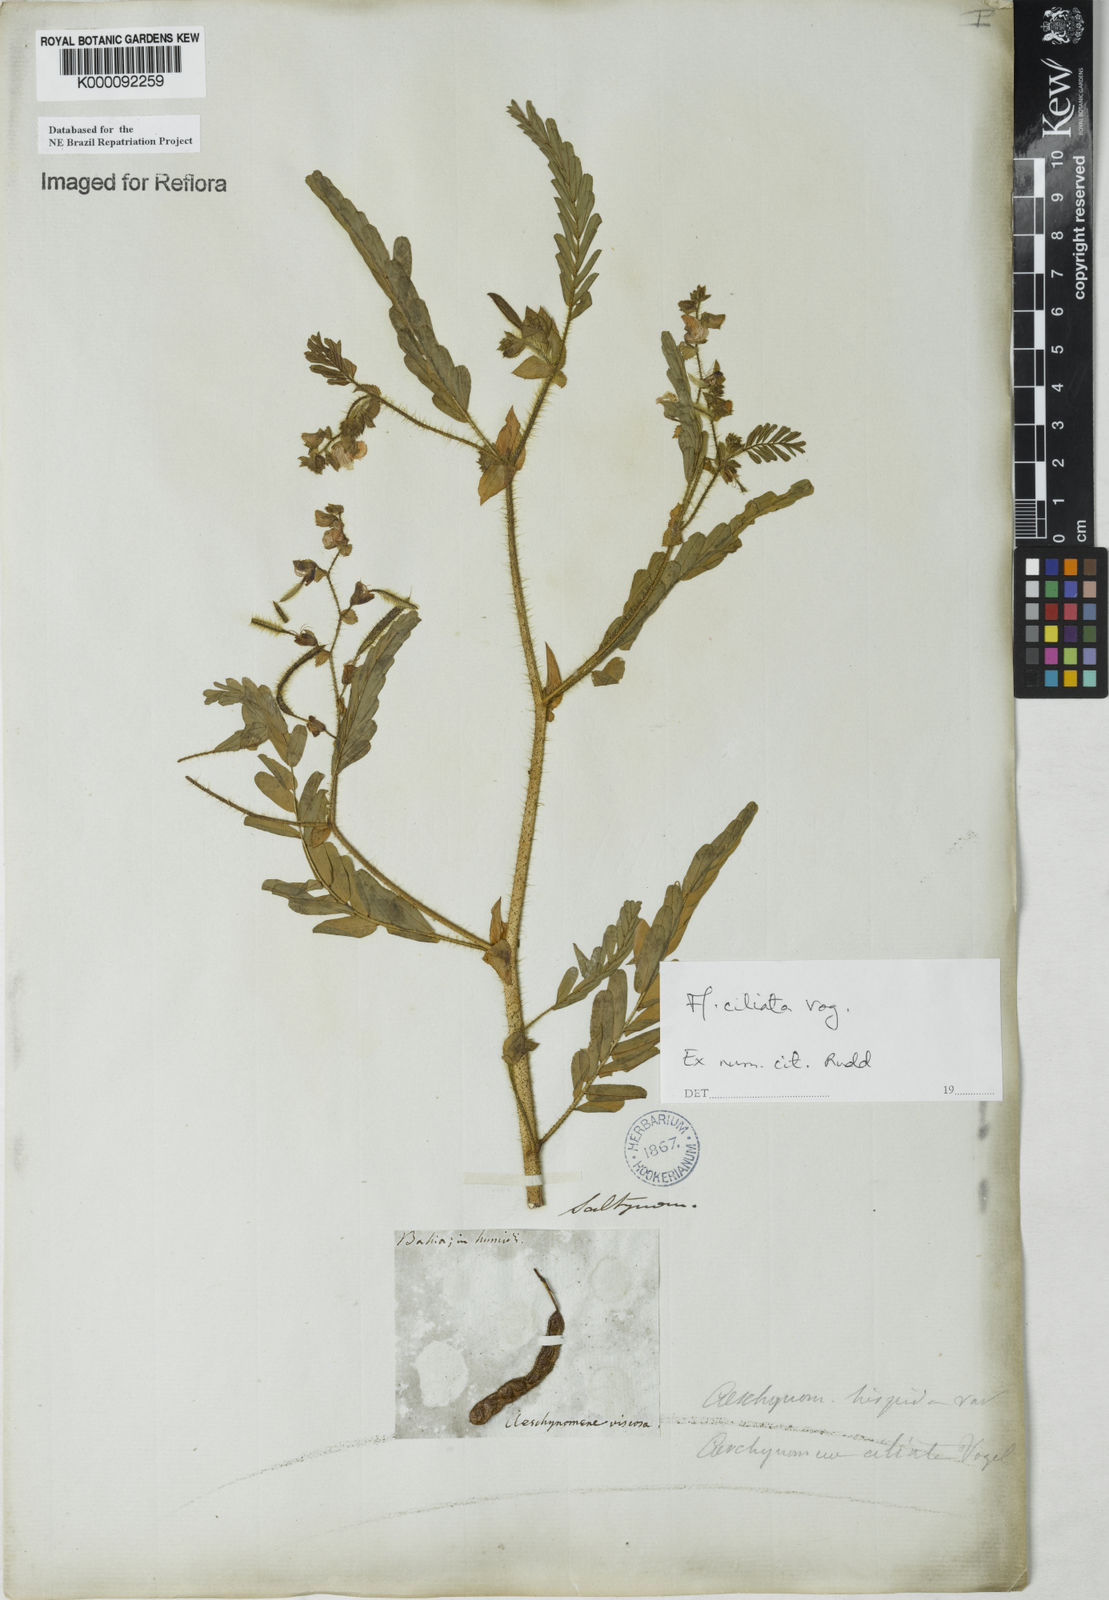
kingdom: Plantae
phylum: Tracheophyta
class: Magnoliopsida
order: Fabales
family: Fabaceae
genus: Aeschynomene
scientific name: Aeschynomene ciliata
